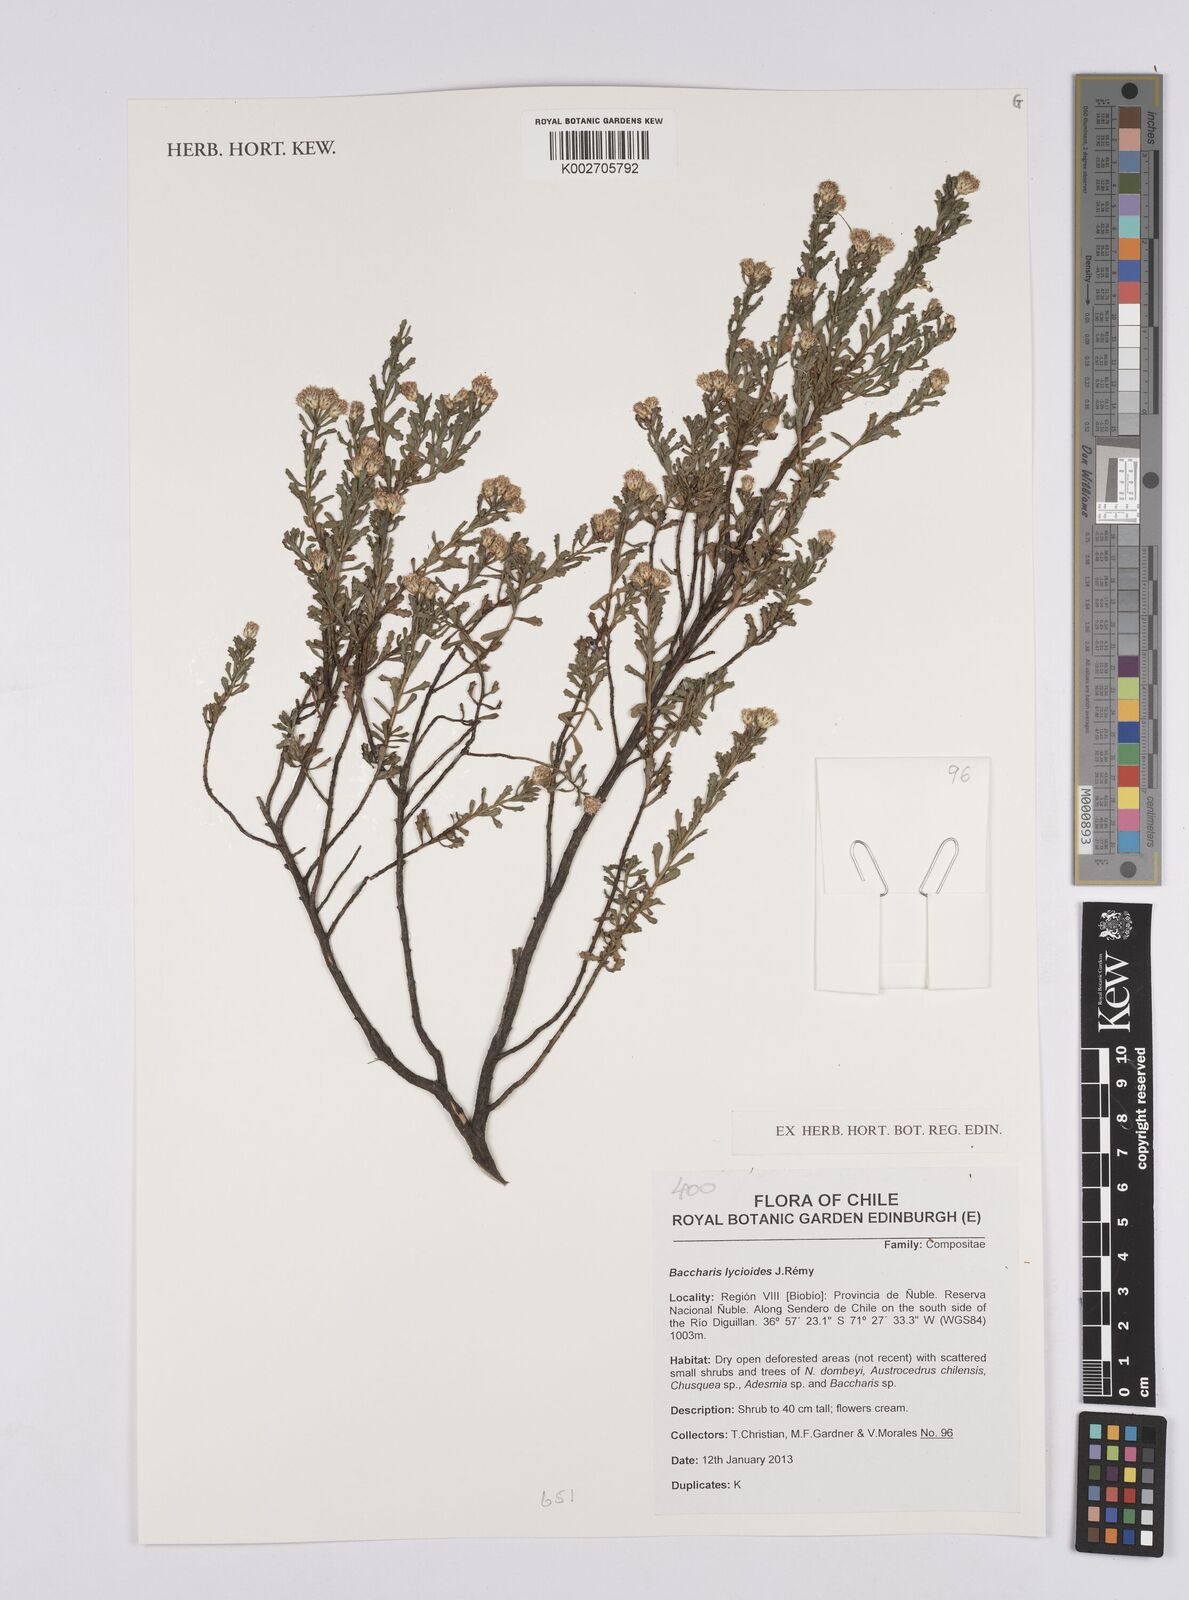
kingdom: Plantae
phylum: Tracheophyta
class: Magnoliopsida
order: Asterales
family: Asteraceae
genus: Baccharis
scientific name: Baccharis lycioides
